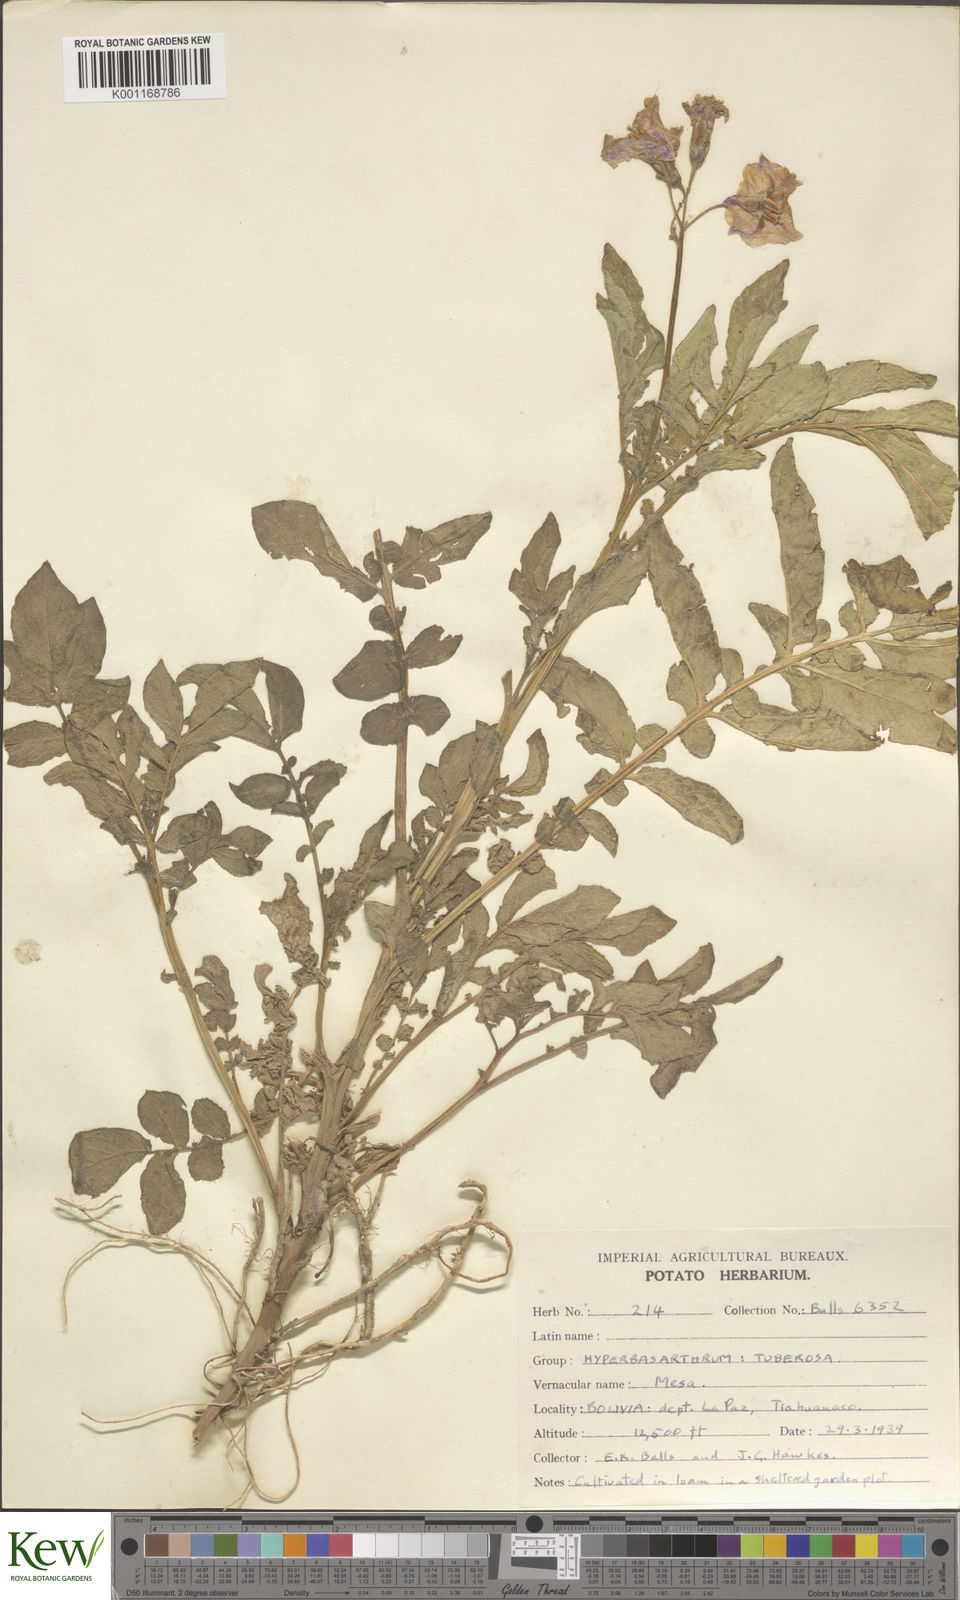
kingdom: Plantae
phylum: Tracheophyta
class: Magnoliopsida
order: Solanales
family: Solanaceae
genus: Solanum
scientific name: Solanum chaucha
